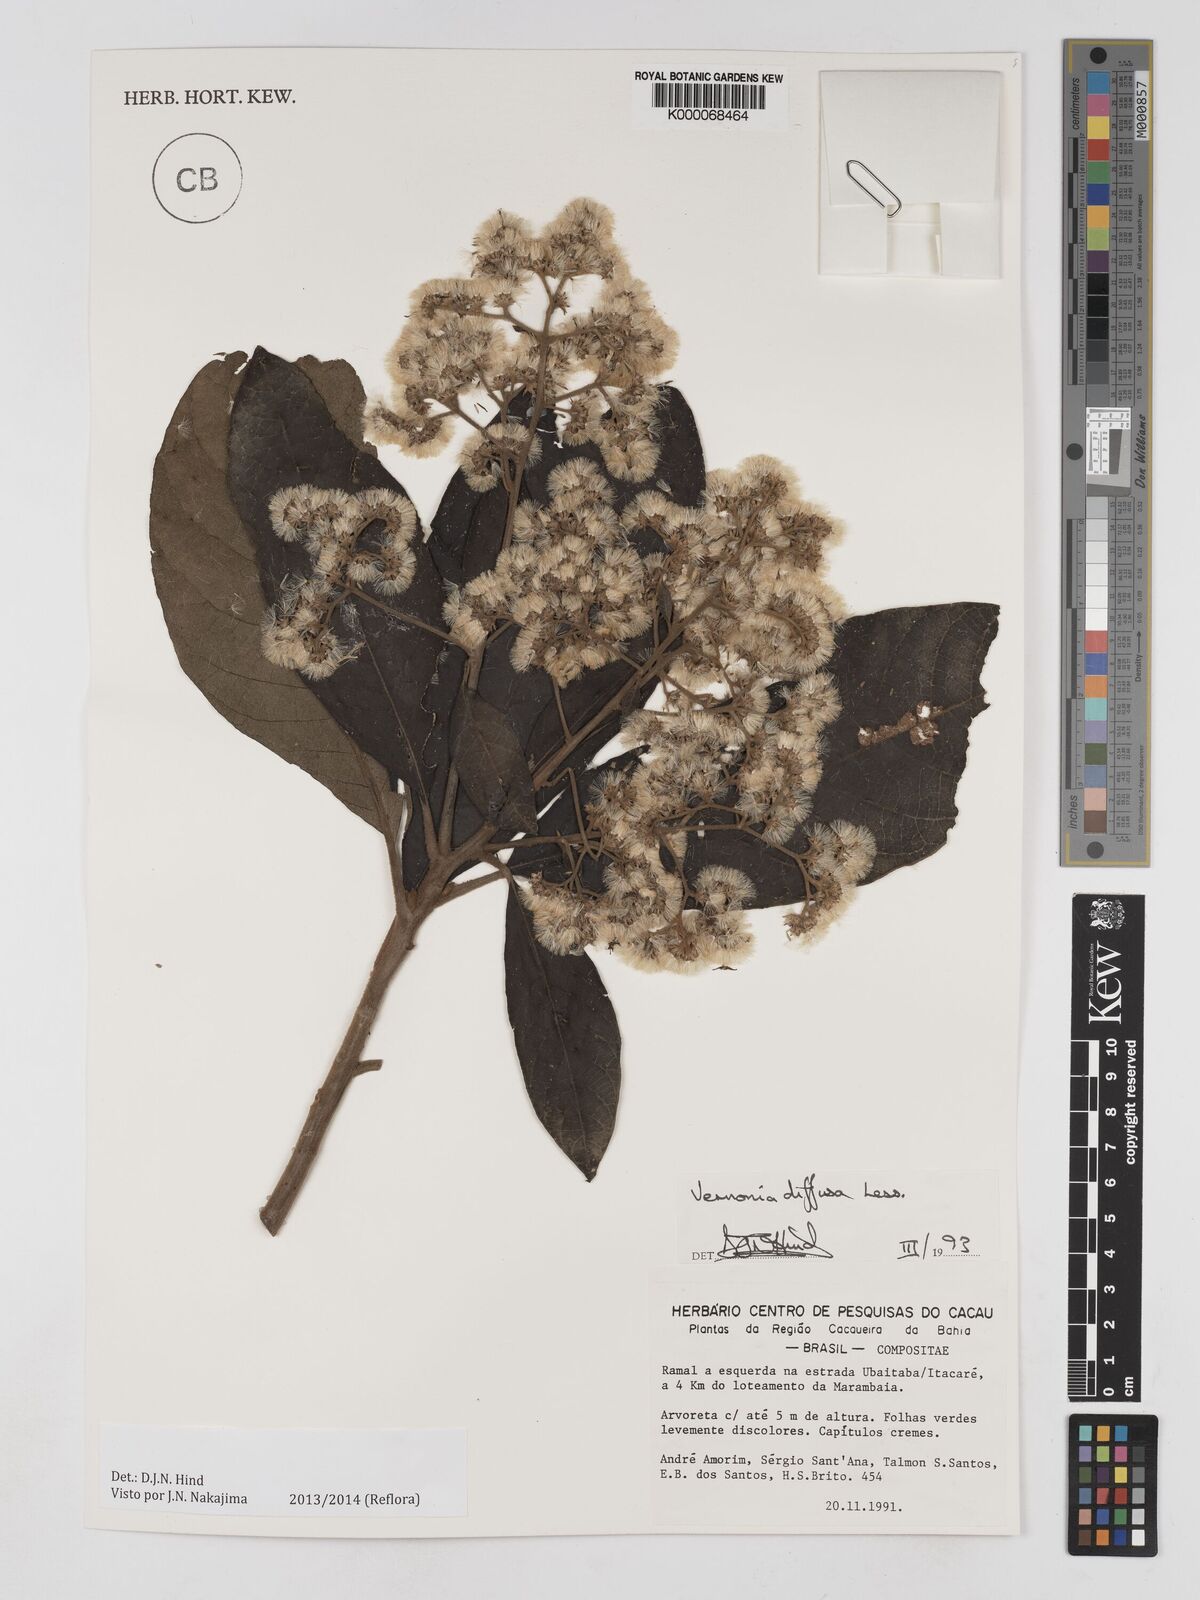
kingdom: Plantae
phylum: Tracheophyta
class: Magnoliopsida
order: Asterales
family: Asteraceae
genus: Vernonanthura
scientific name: Vernonanthura divaricata
